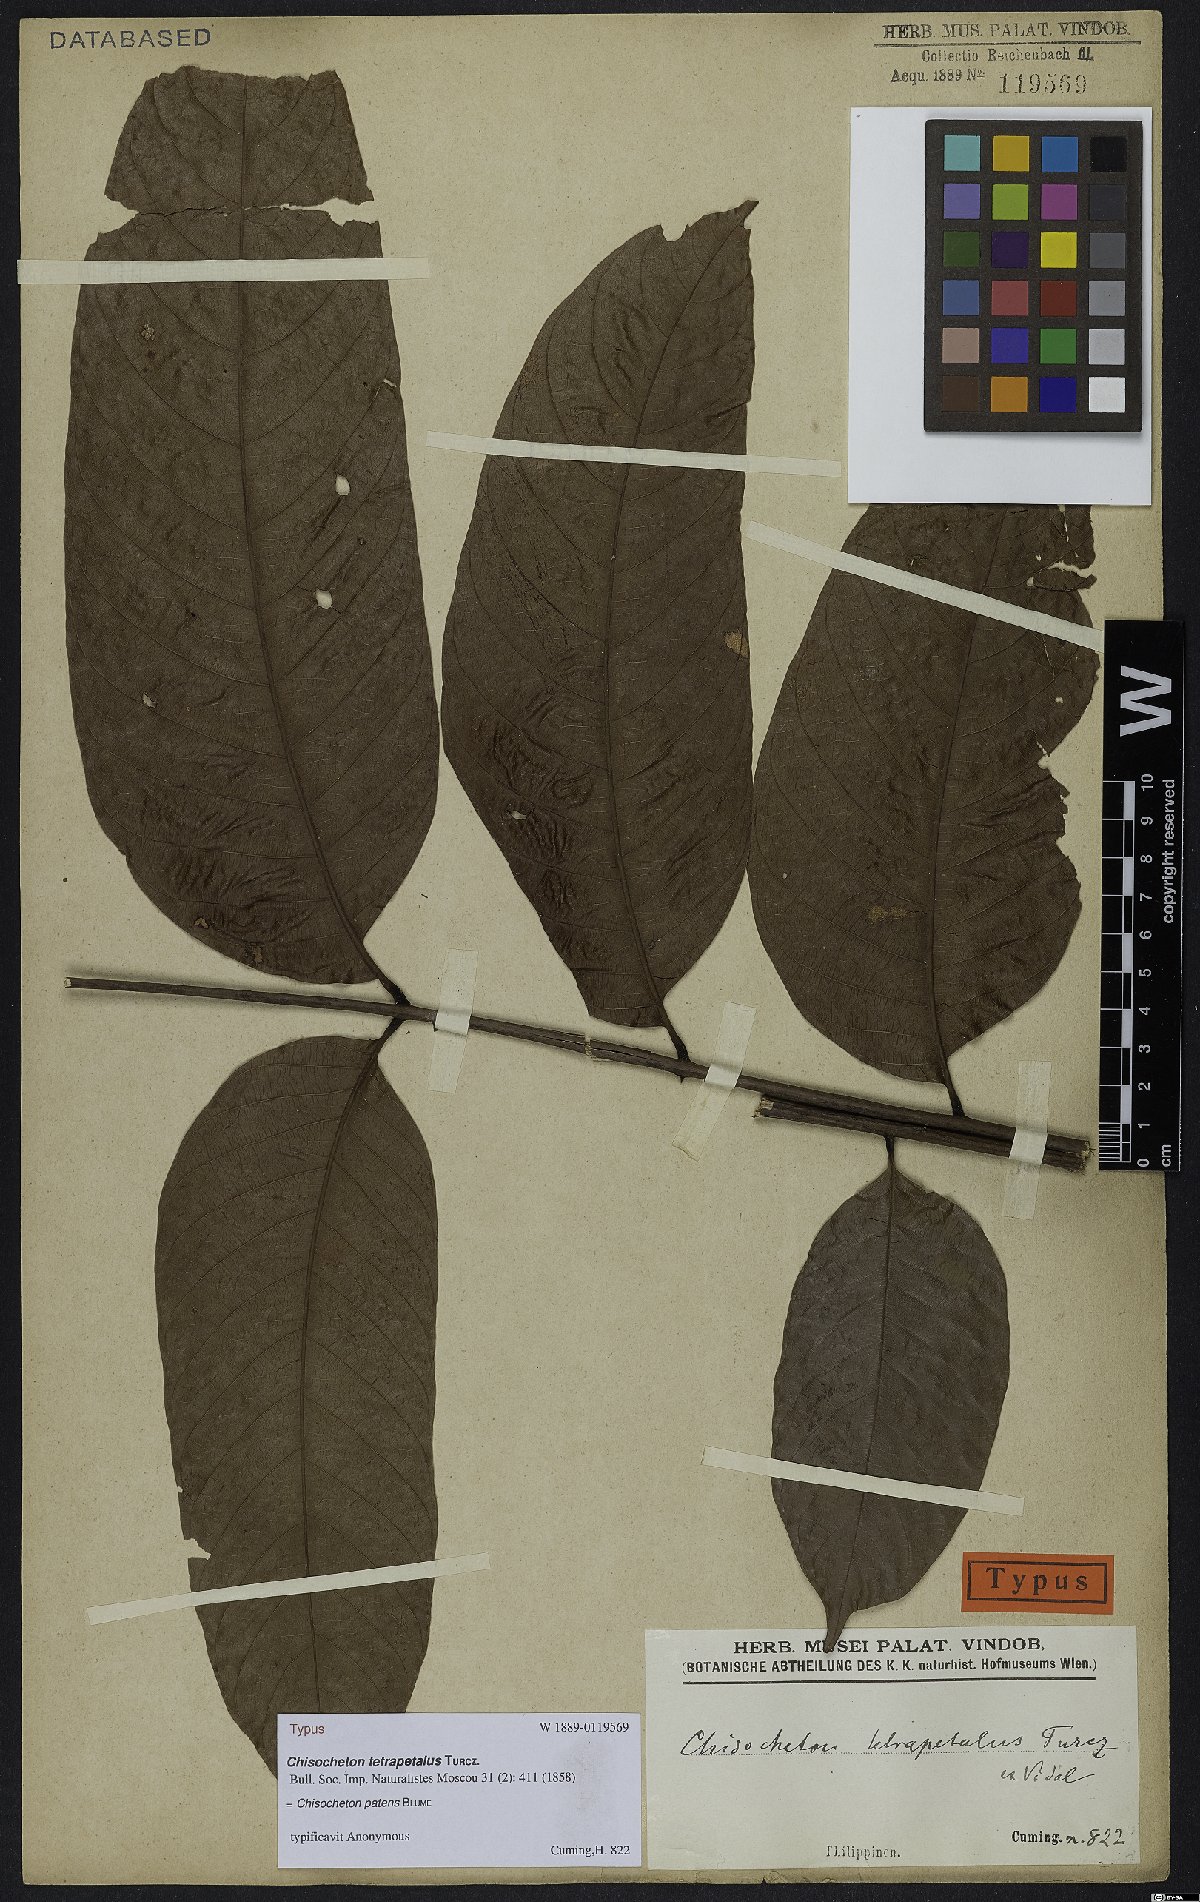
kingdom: Plantae
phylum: Tracheophyta
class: Magnoliopsida
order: Sapindales
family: Meliaceae
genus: Chisocheton
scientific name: Chisocheton patens
